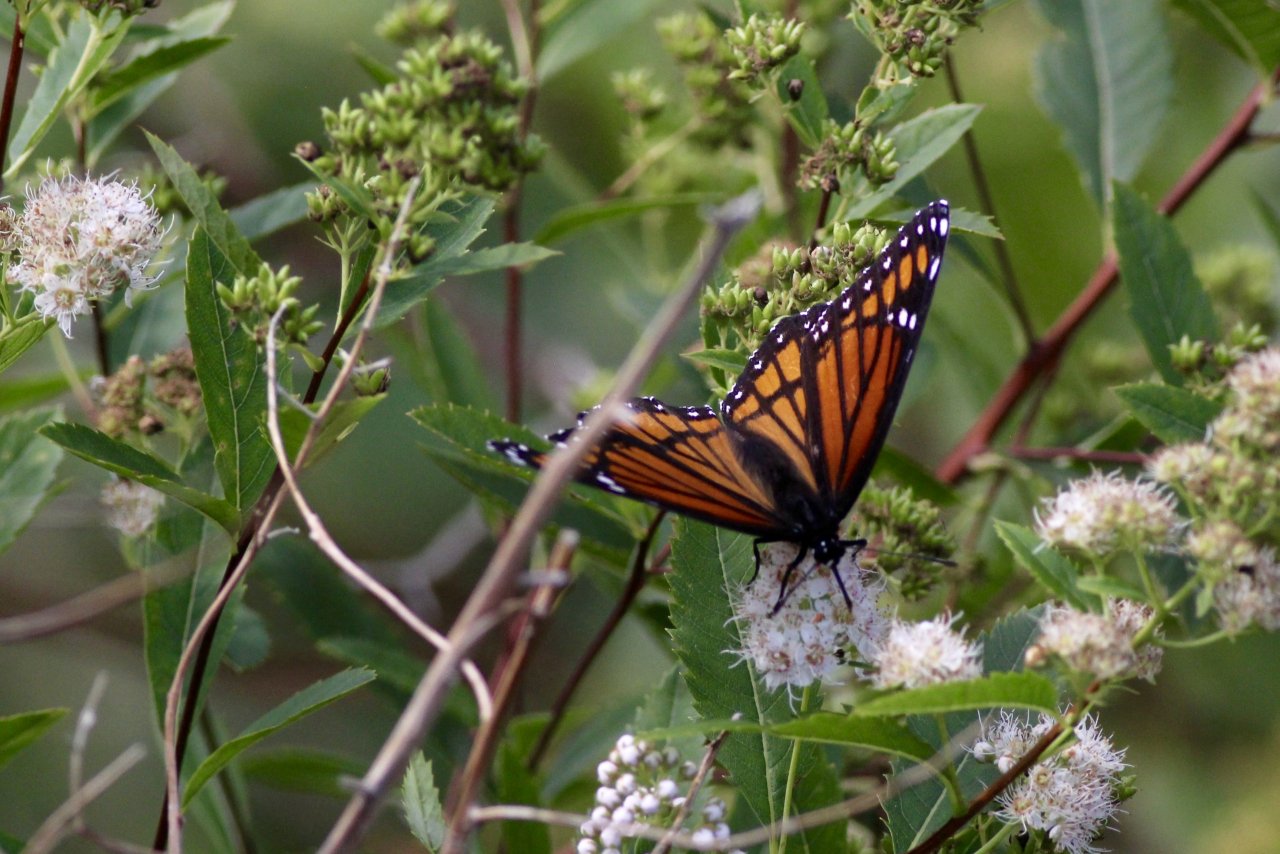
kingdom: Animalia
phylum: Arthropoda
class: Insecta
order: Lepidoptera
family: Nymphalidae
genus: Limenitis
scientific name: Limenitis archippus
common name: Viceroy
